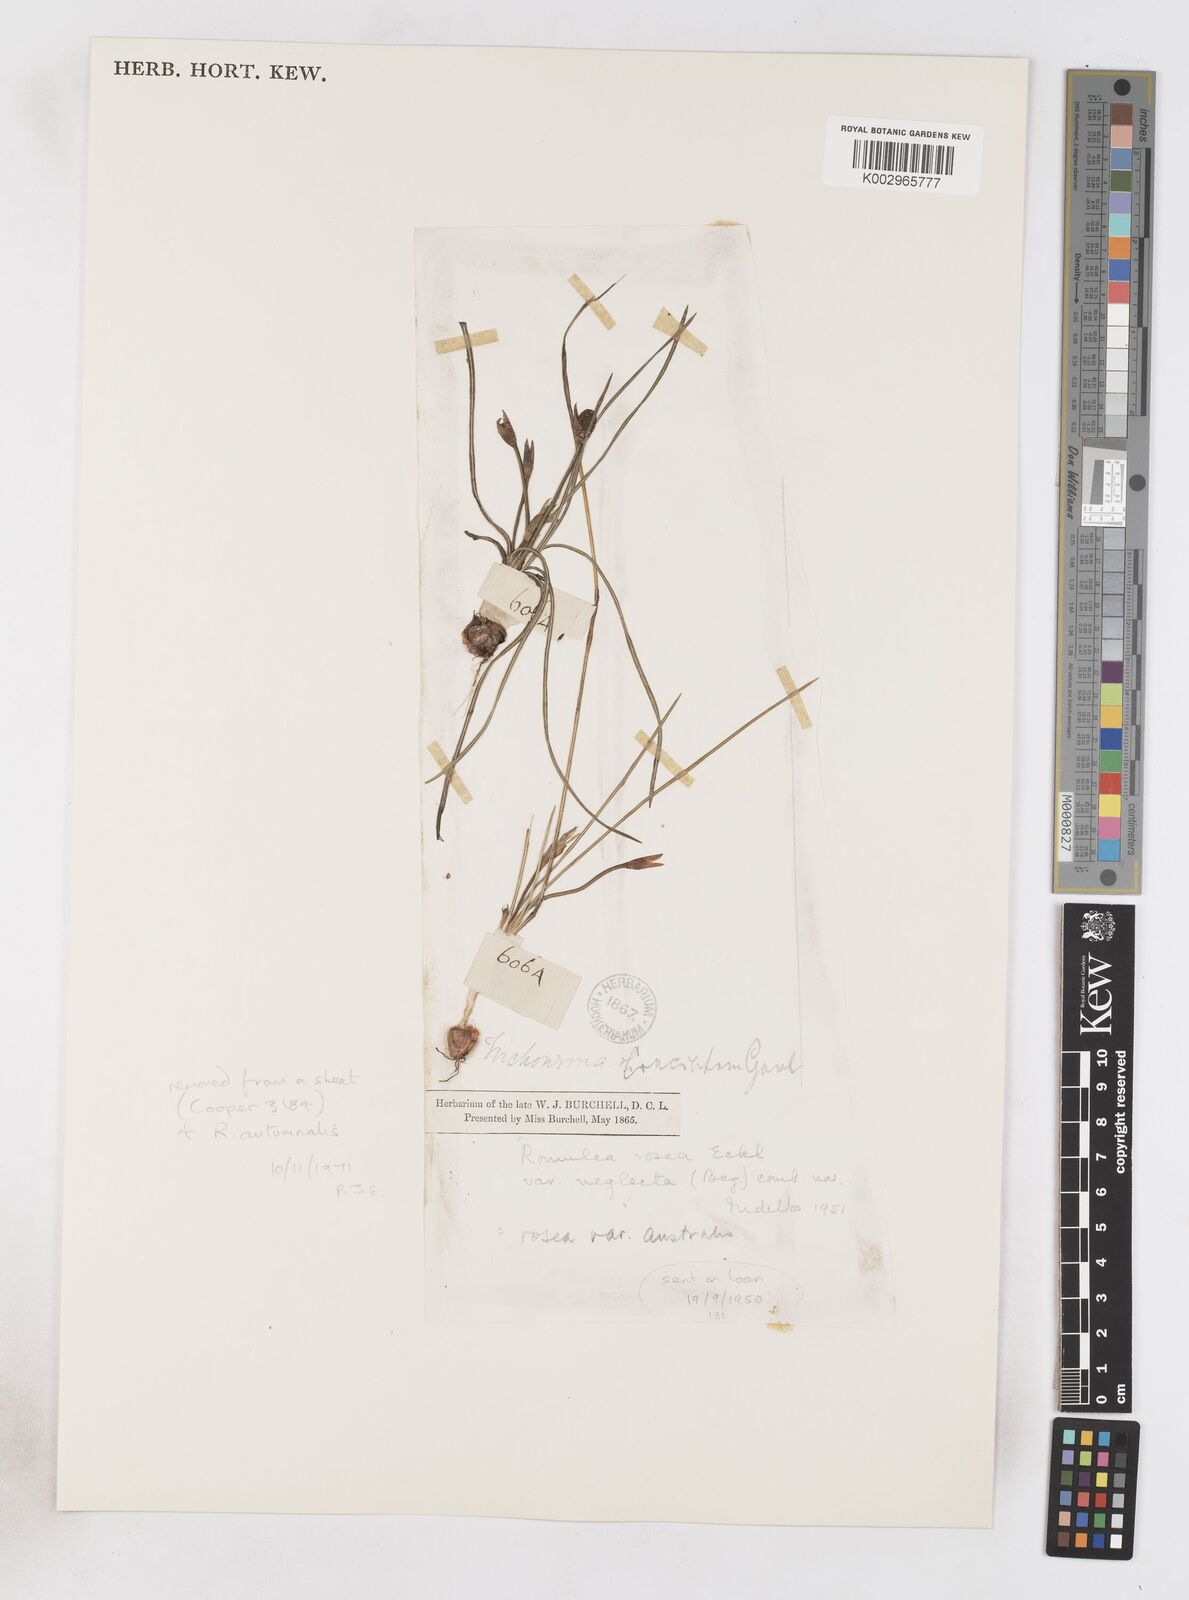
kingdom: Plantae
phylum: Tracheophyta
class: Liliopsida
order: Asparagales
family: Iridaceae
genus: Romulea
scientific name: Romulea rosea
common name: Oniongrass
